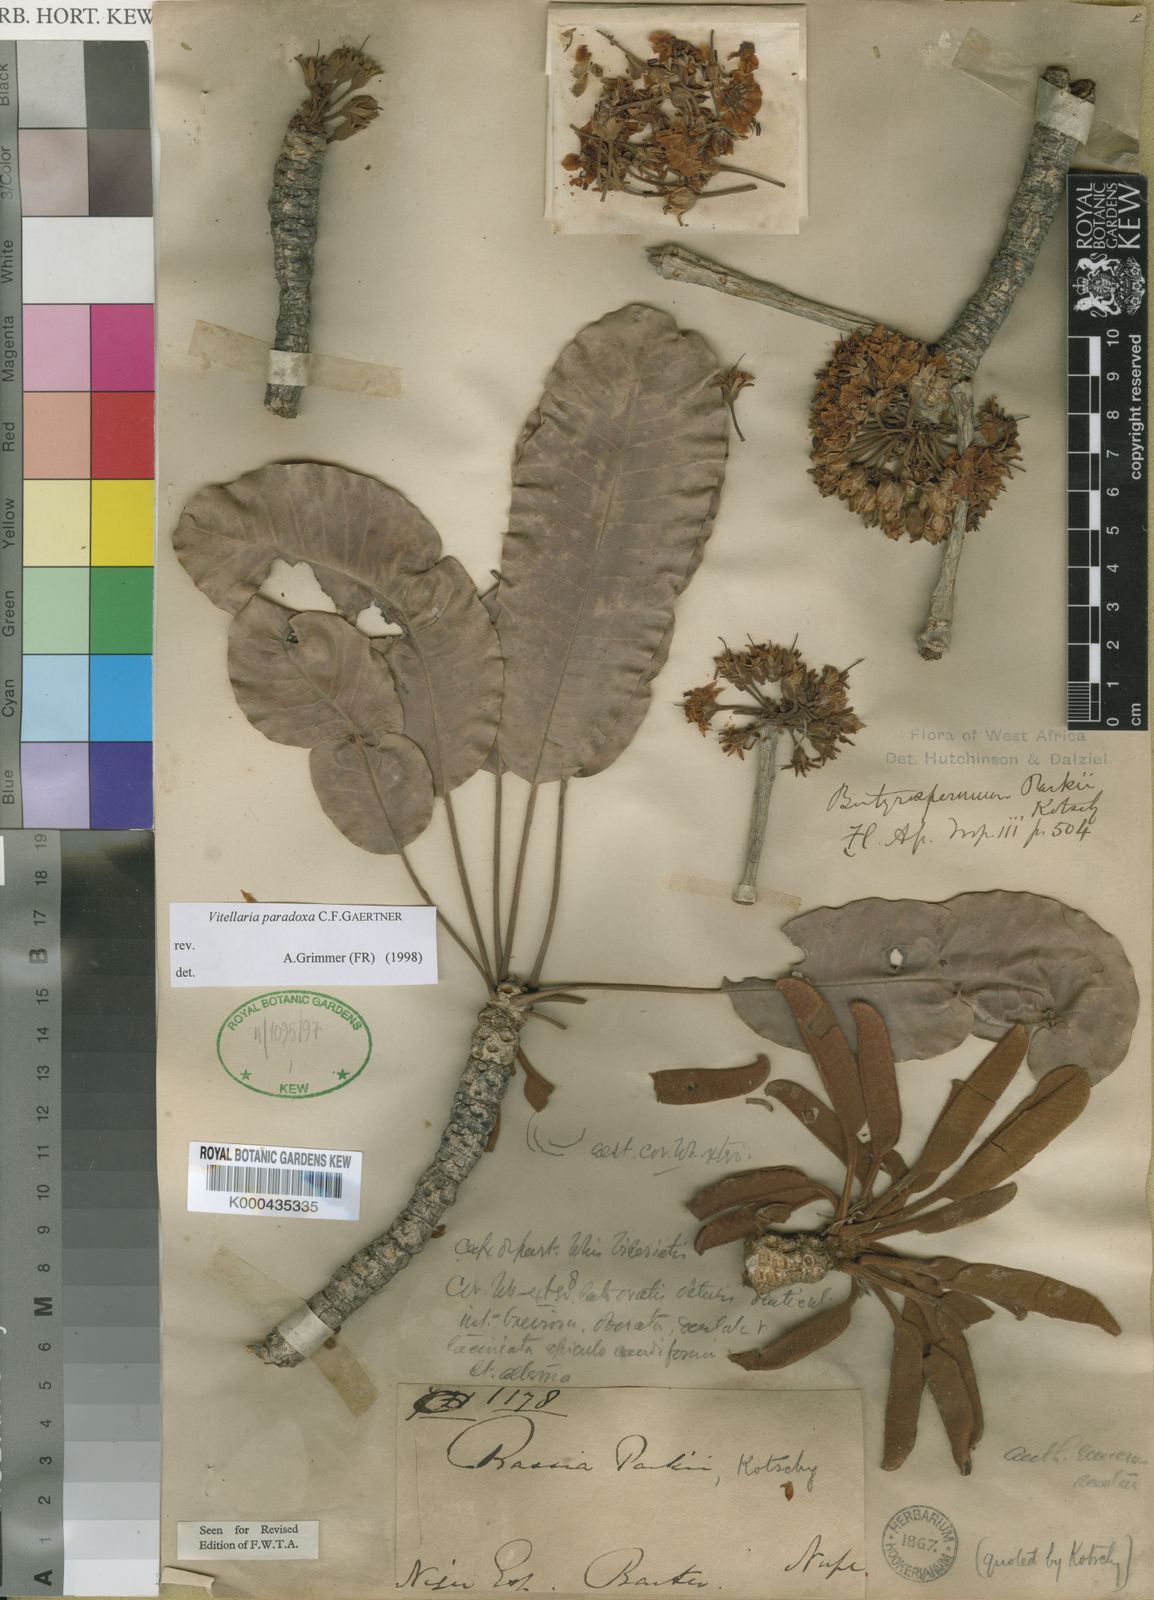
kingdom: Plantae
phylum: Tracheophyta
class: Magnoliopsida
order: Ericales
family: Sapotaceae
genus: Vitellaria
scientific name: Vitellaria paradoxa
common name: Shea butter tree
